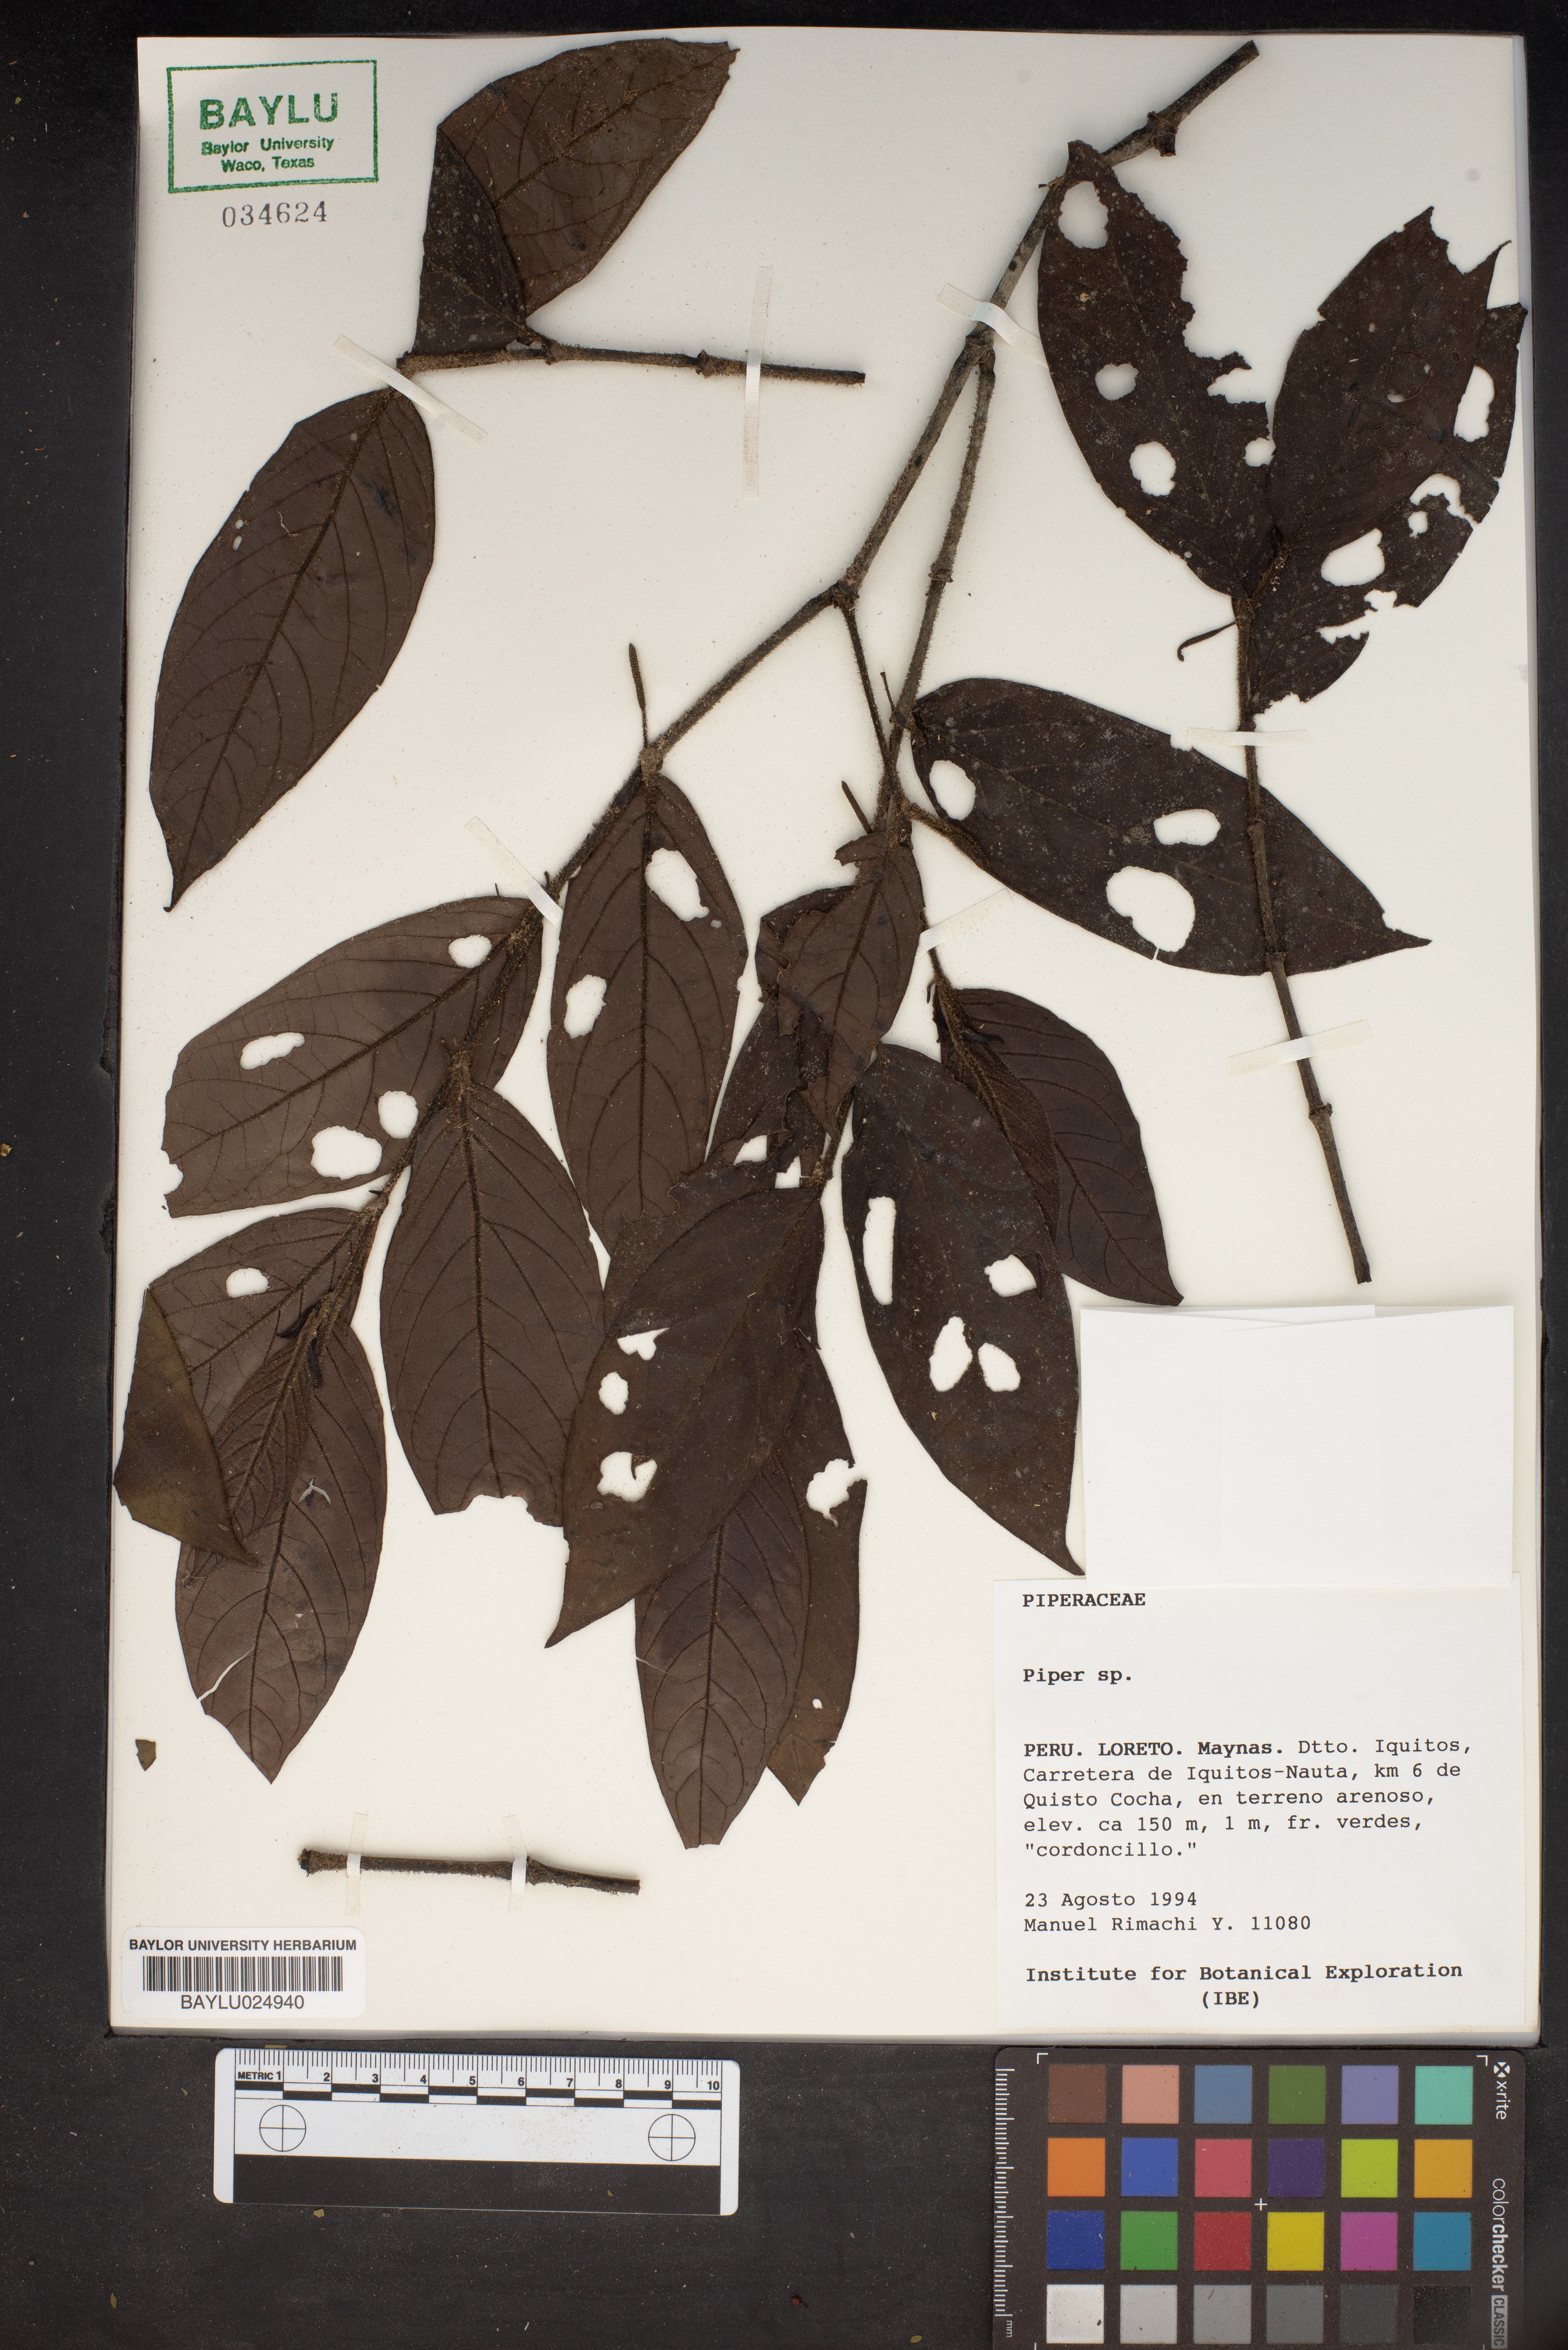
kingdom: Plantae
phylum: Tracheophyta
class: Magnoliopsida
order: Piperales
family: Piperaceae
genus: Piper
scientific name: Piper
